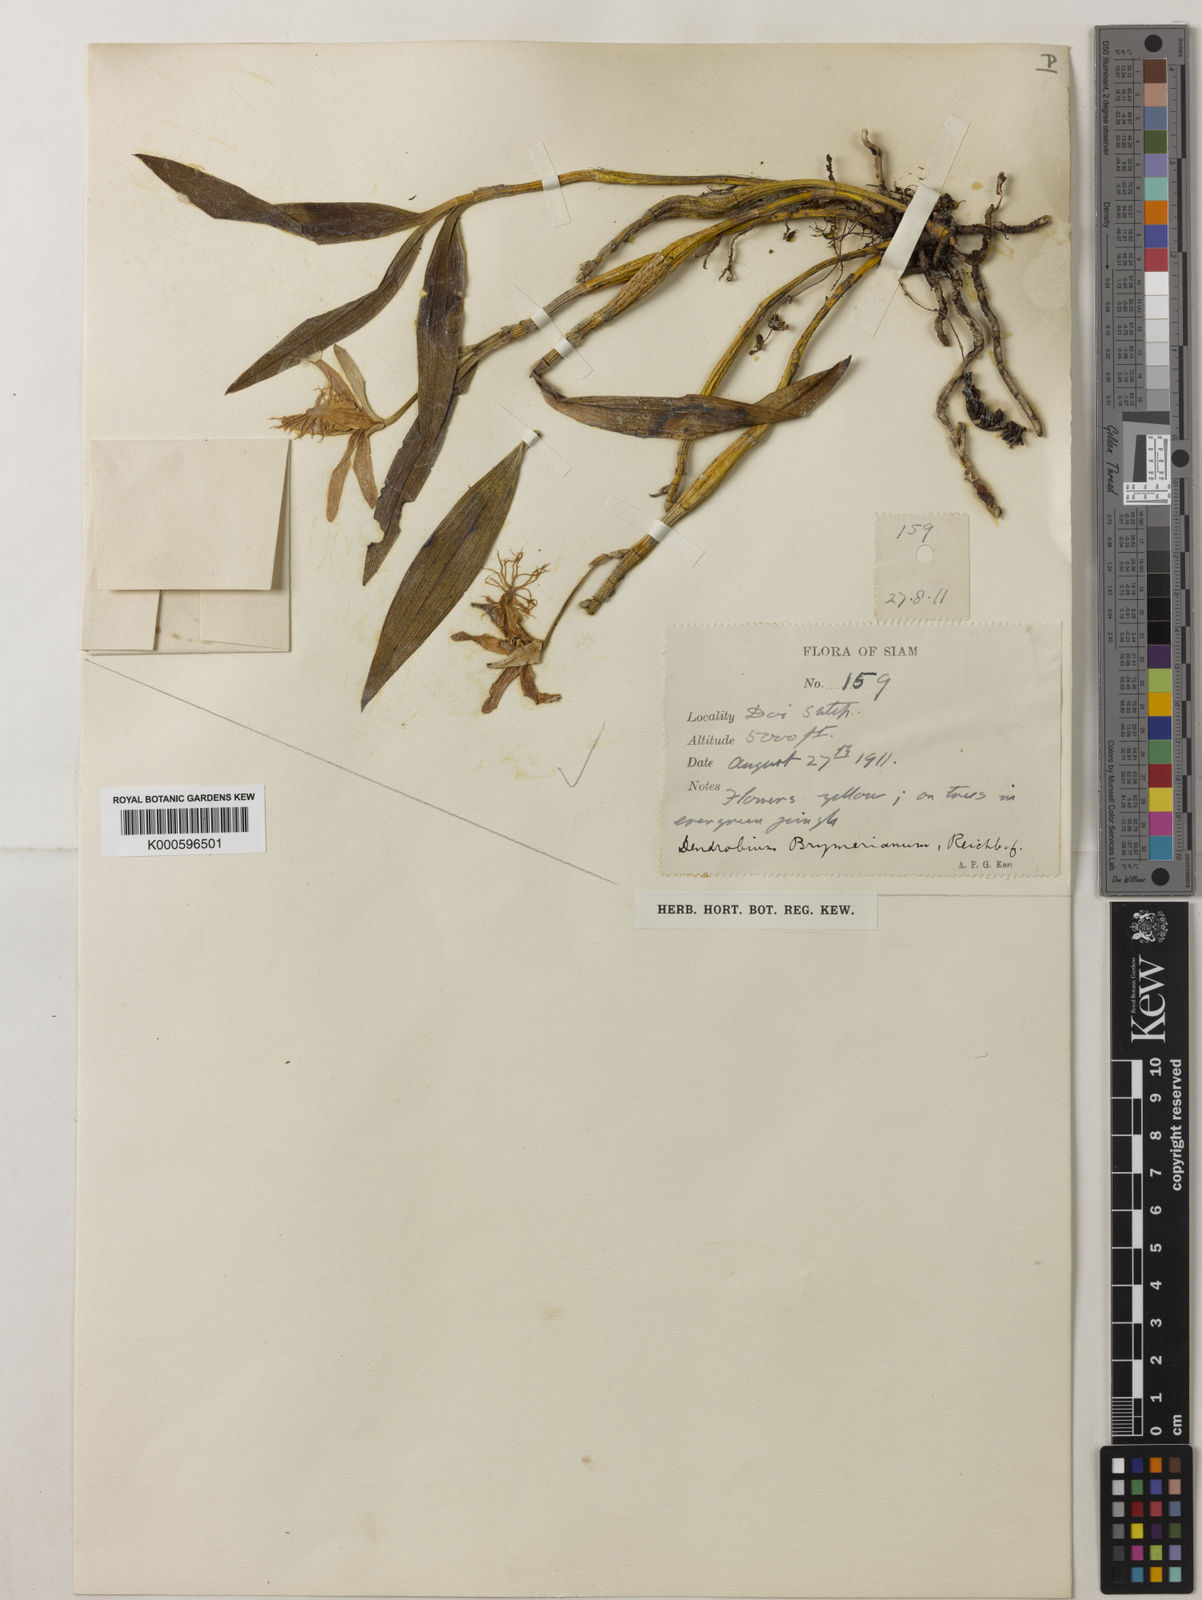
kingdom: Plantae
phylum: Tracheophyta
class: Liliopsida
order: Asparagales
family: Orchidaceae
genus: Dendrobium
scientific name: Dendrobium brymerianum
